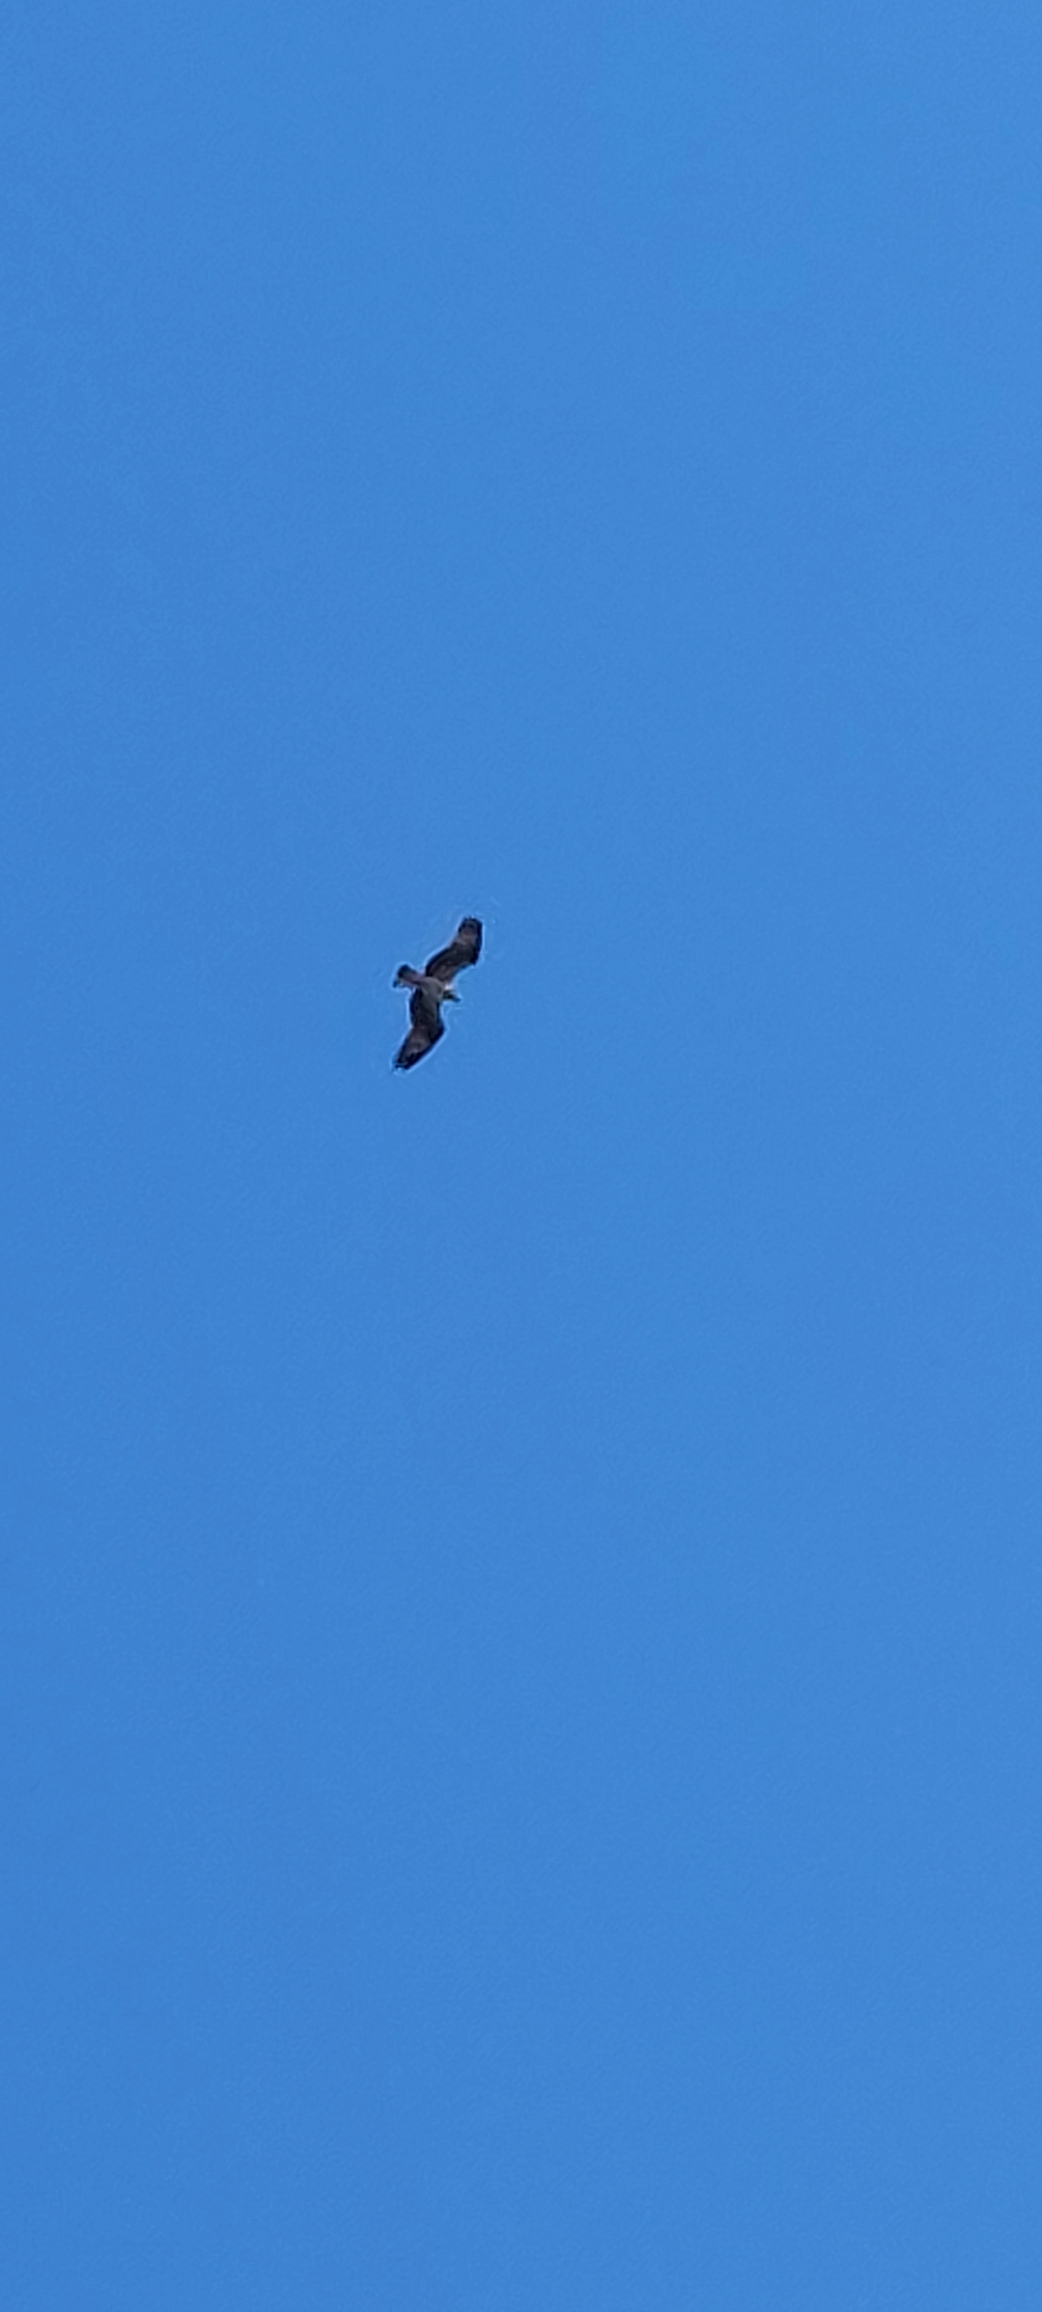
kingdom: Animalia
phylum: Chordata
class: Aves
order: Accipitriformes
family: Pandionidae
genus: Pandion
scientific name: Pandion haliaetus
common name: Fiskeørn
